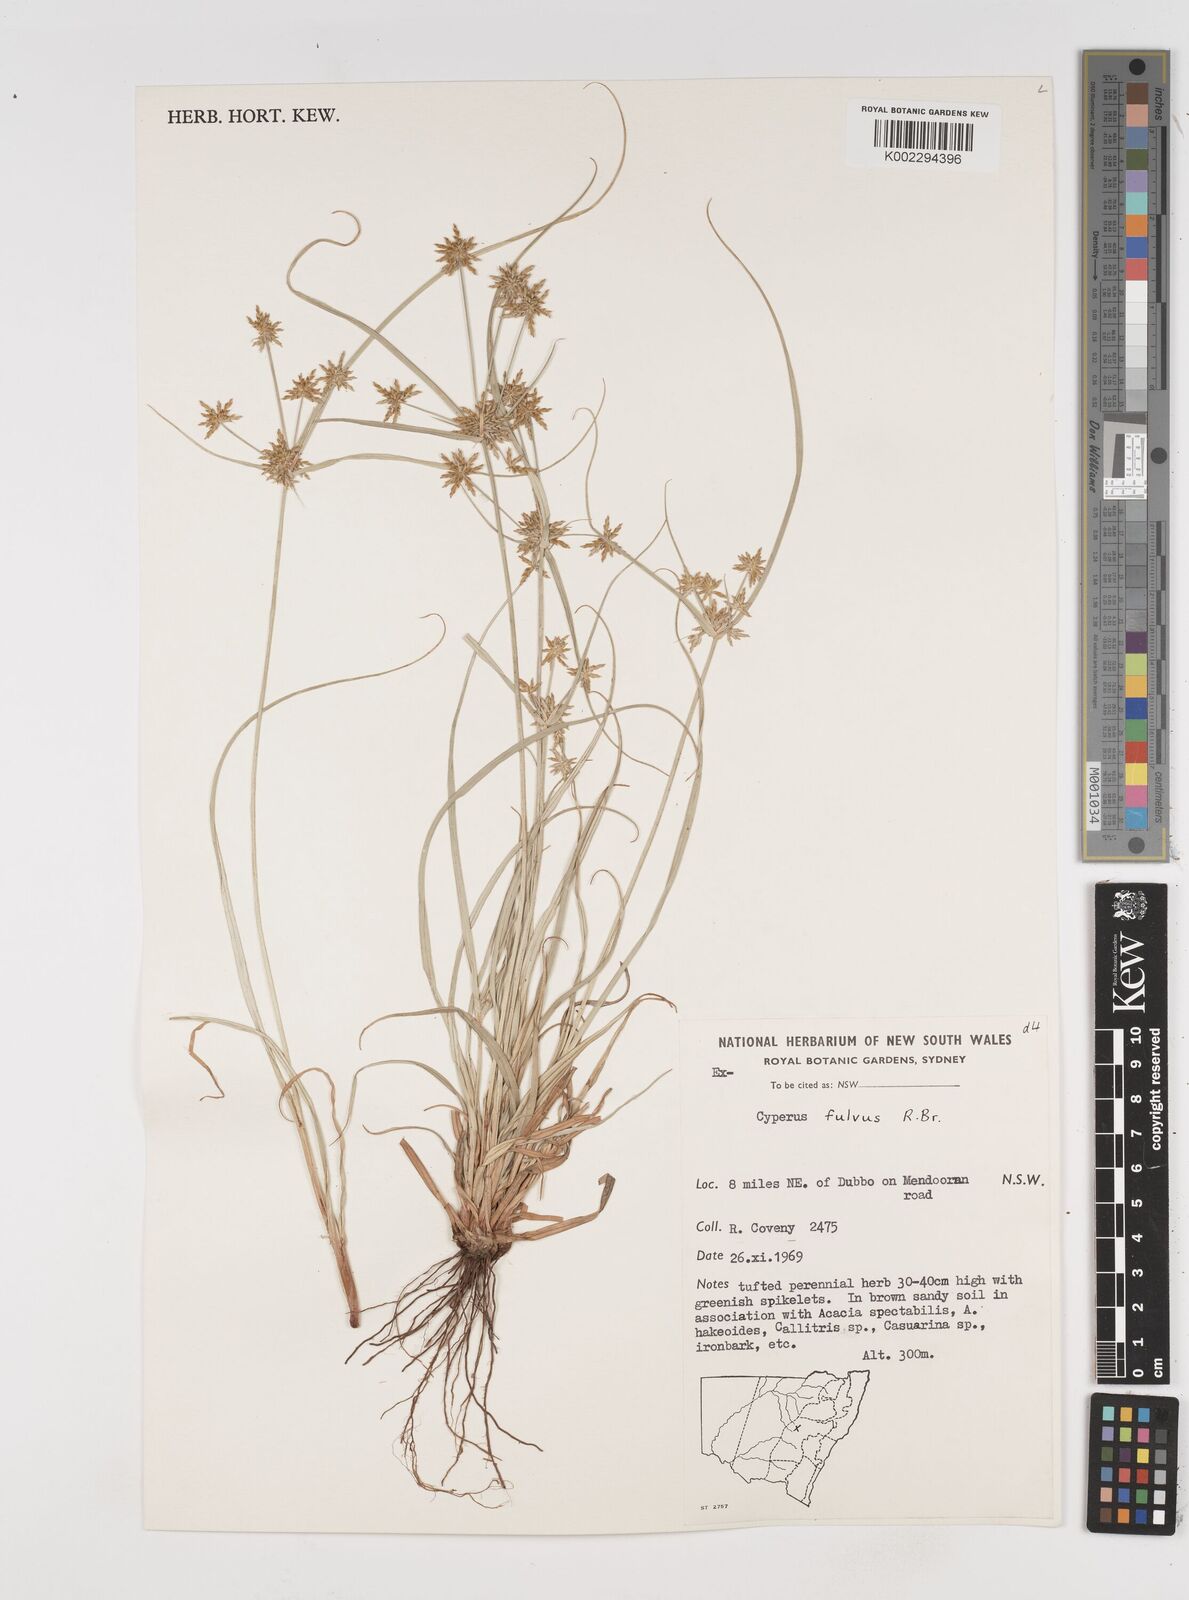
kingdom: Plantae
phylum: Tracheophyta
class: Liliopsida
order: Poales
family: Cyperaceae
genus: Cyperus
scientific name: Cyperus fulvus
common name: Sticky sedge
